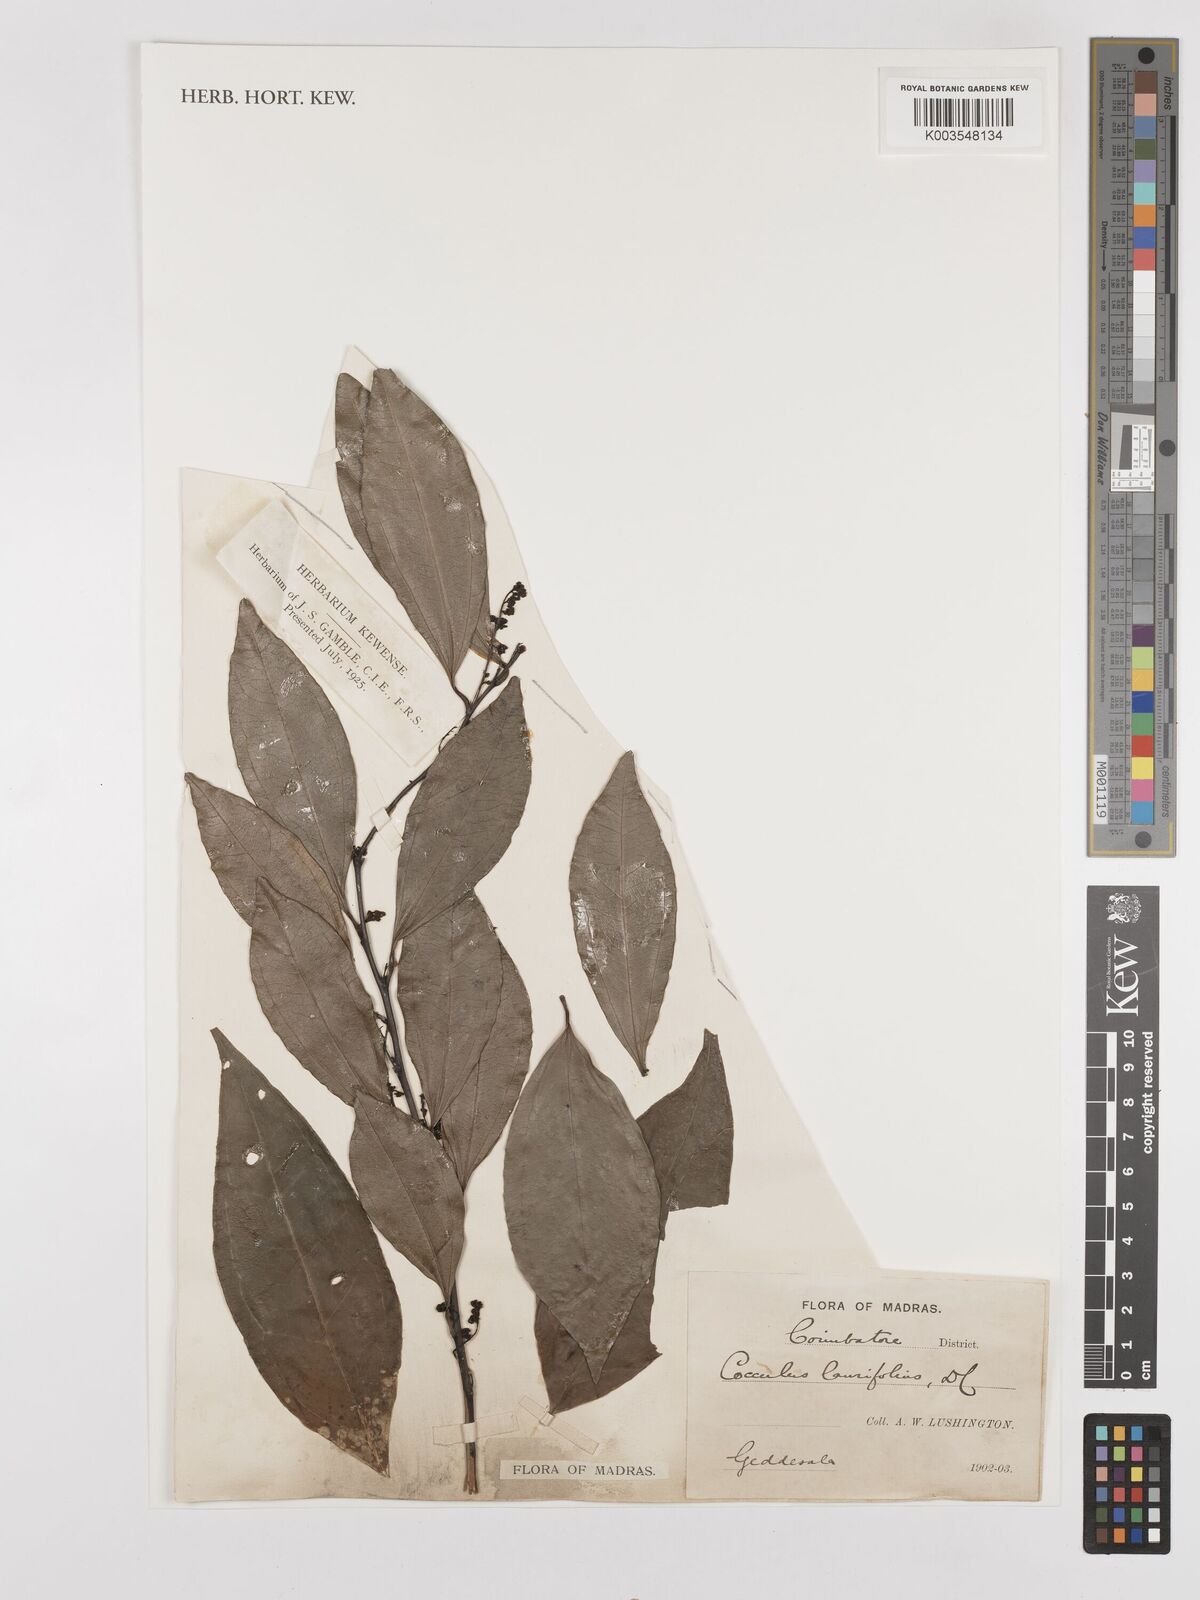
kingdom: Plantae
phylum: Tracheophyta
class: Magnoliopsida
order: Ranunculales
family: Menispermaceae
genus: Cocculus
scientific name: Cocculus laurifolius
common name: Laurel-leaf snailseed
